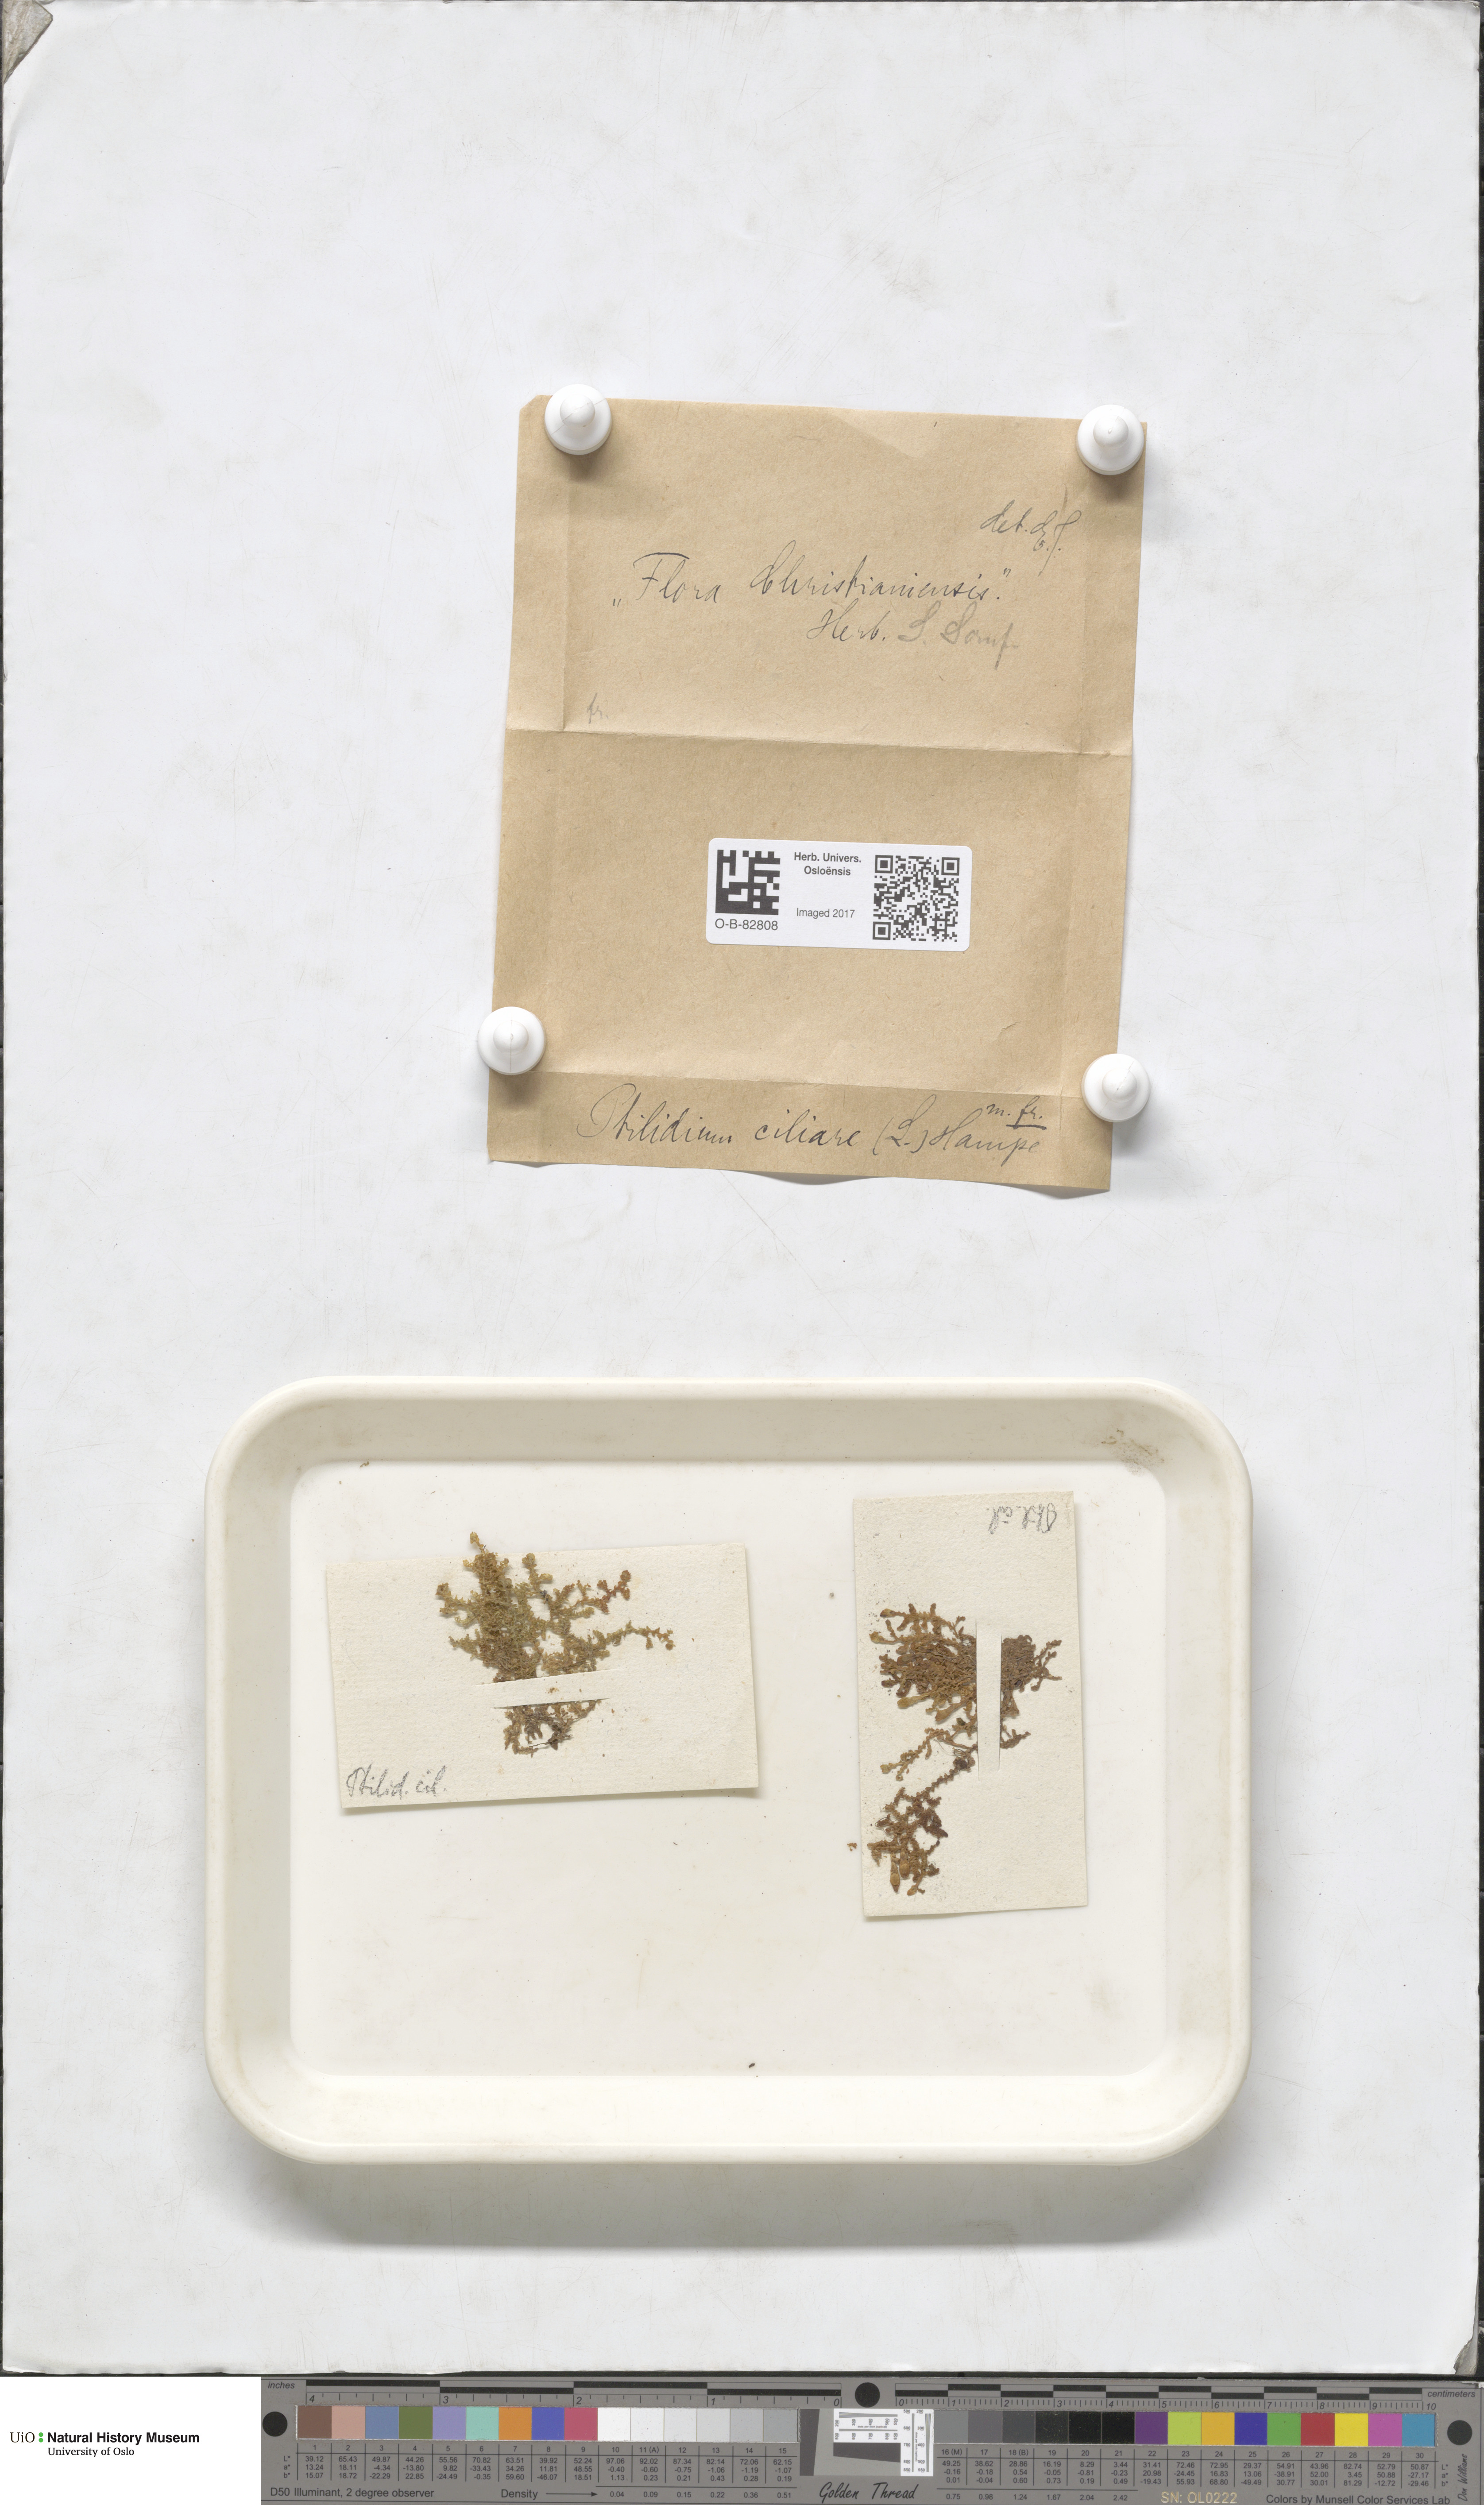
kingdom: Plantae
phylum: Marchantiophyta
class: Jungermanniopsida
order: Ptilidiales
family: Ptilidiaceae
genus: Ptilidium
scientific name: Ptilidium ciliare
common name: Ciliate fringewort
